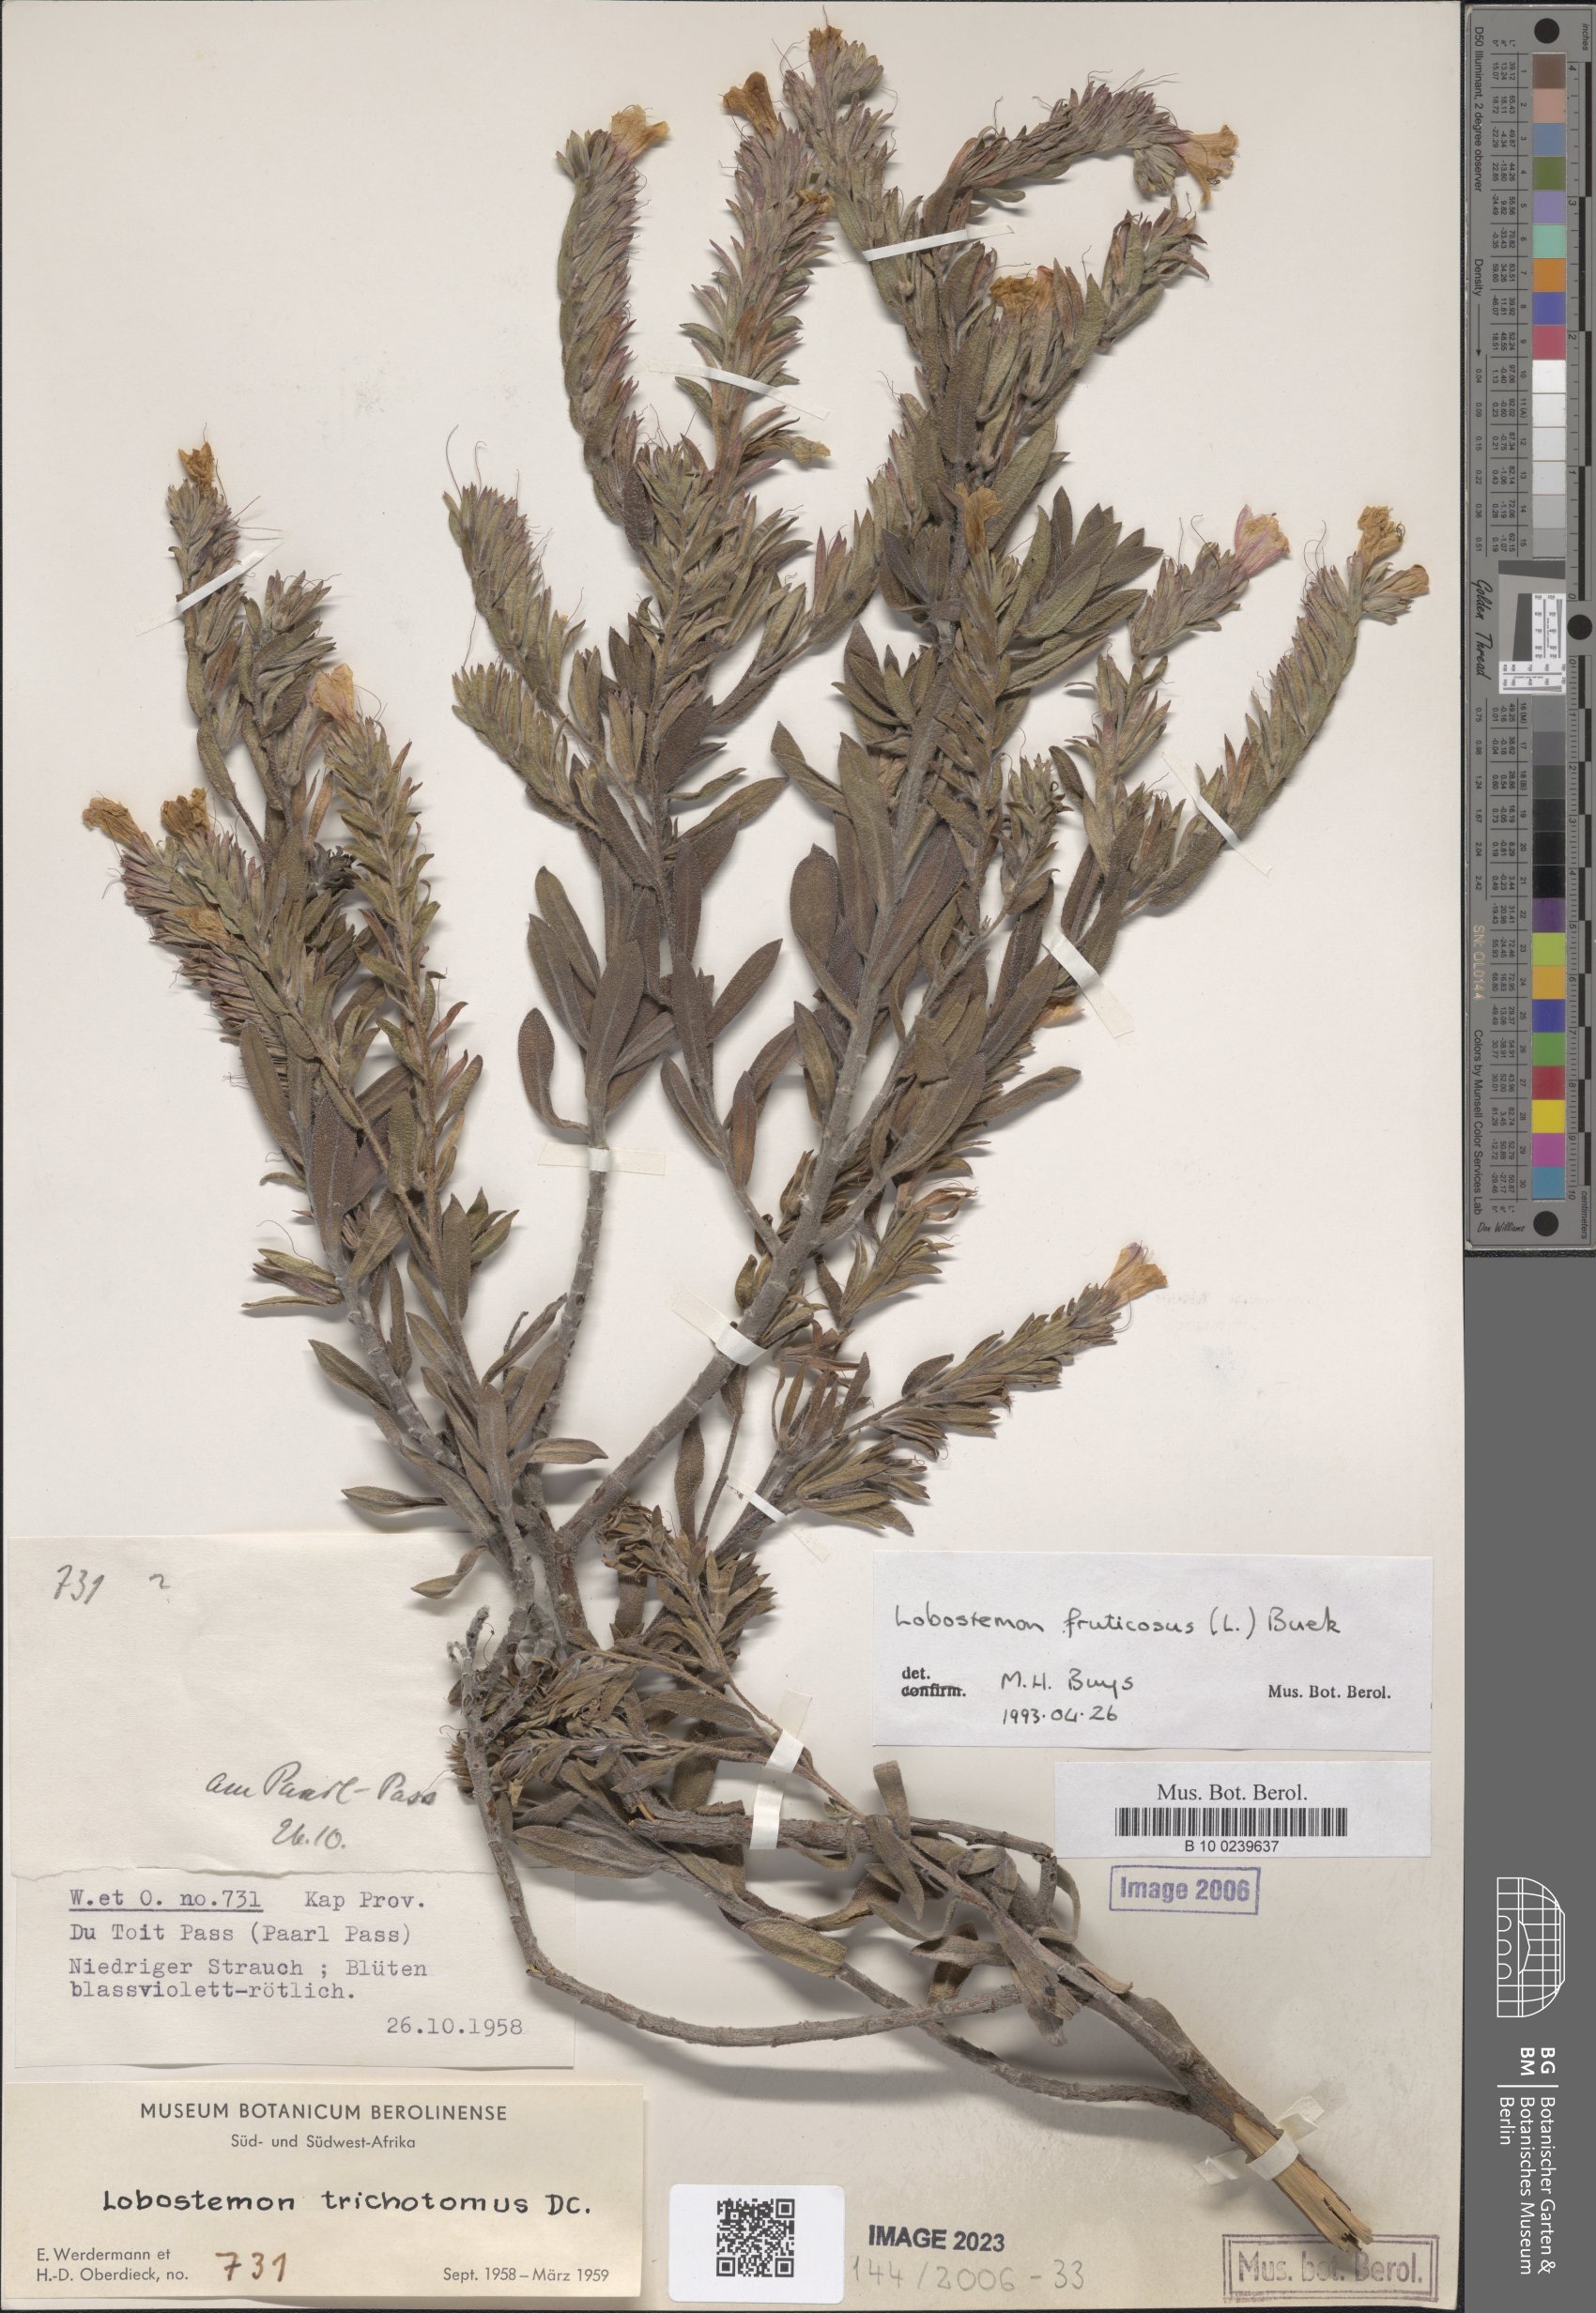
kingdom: Plantae
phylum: Tracheophyta
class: Magnoliopsida
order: Boraginales
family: Boraginaceae
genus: Lobostemon
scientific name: Lobostemon trichotomus
